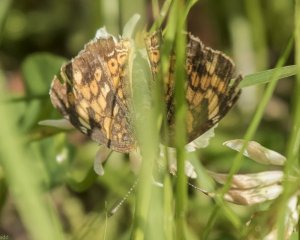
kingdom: Animalia
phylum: Arthropoda
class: Insecta
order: Lepidoptera
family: Nymphalidae
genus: Phyciodes
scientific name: Phyciodes tharos
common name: Northern Crescent
